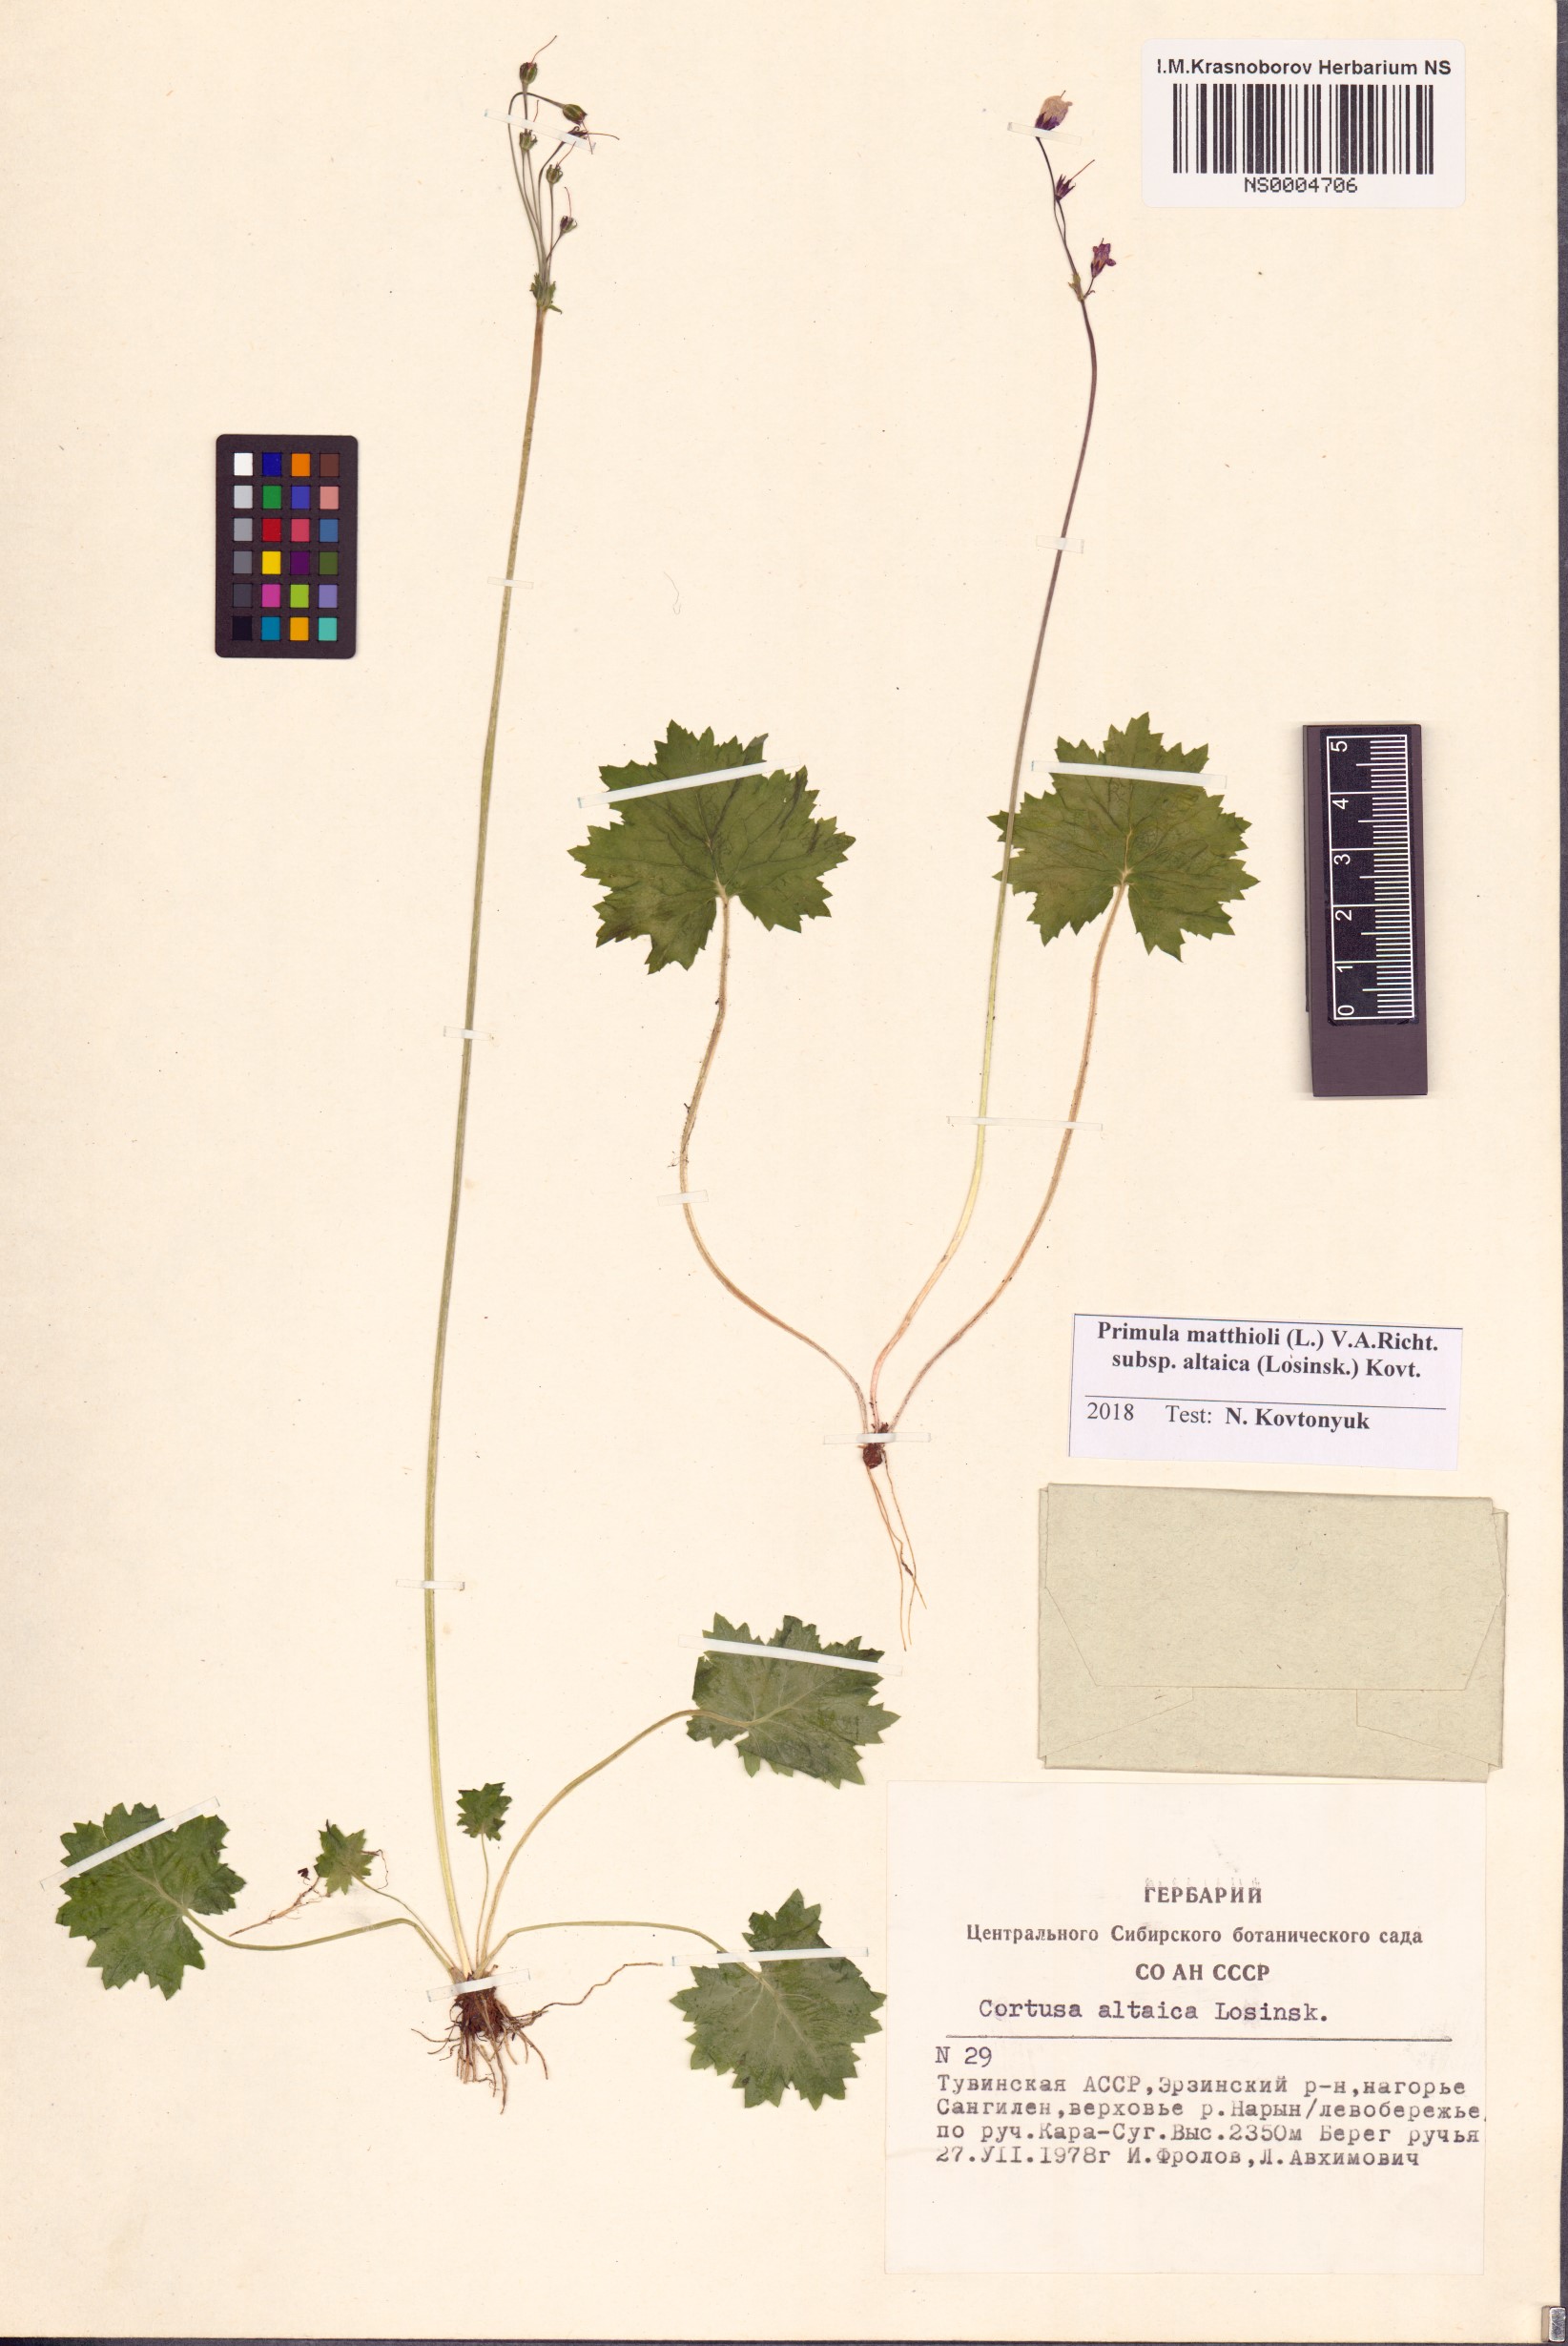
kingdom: Plantae
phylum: Tracheophyta
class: Magnoliopsida
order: Ericales
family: Primulaceae
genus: Primula
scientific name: Primula matthioli
